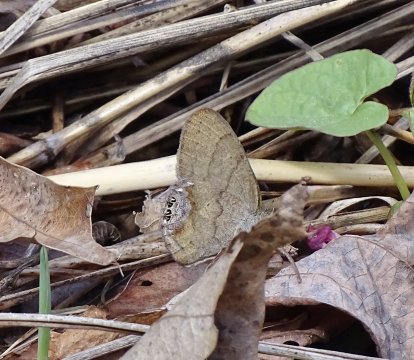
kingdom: Animalia
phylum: Arthropoda
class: Insecta
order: Lepidoptera
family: Nymphalidae
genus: Euptychia
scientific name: Euptychia cornelius
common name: Gemmed Satyr
